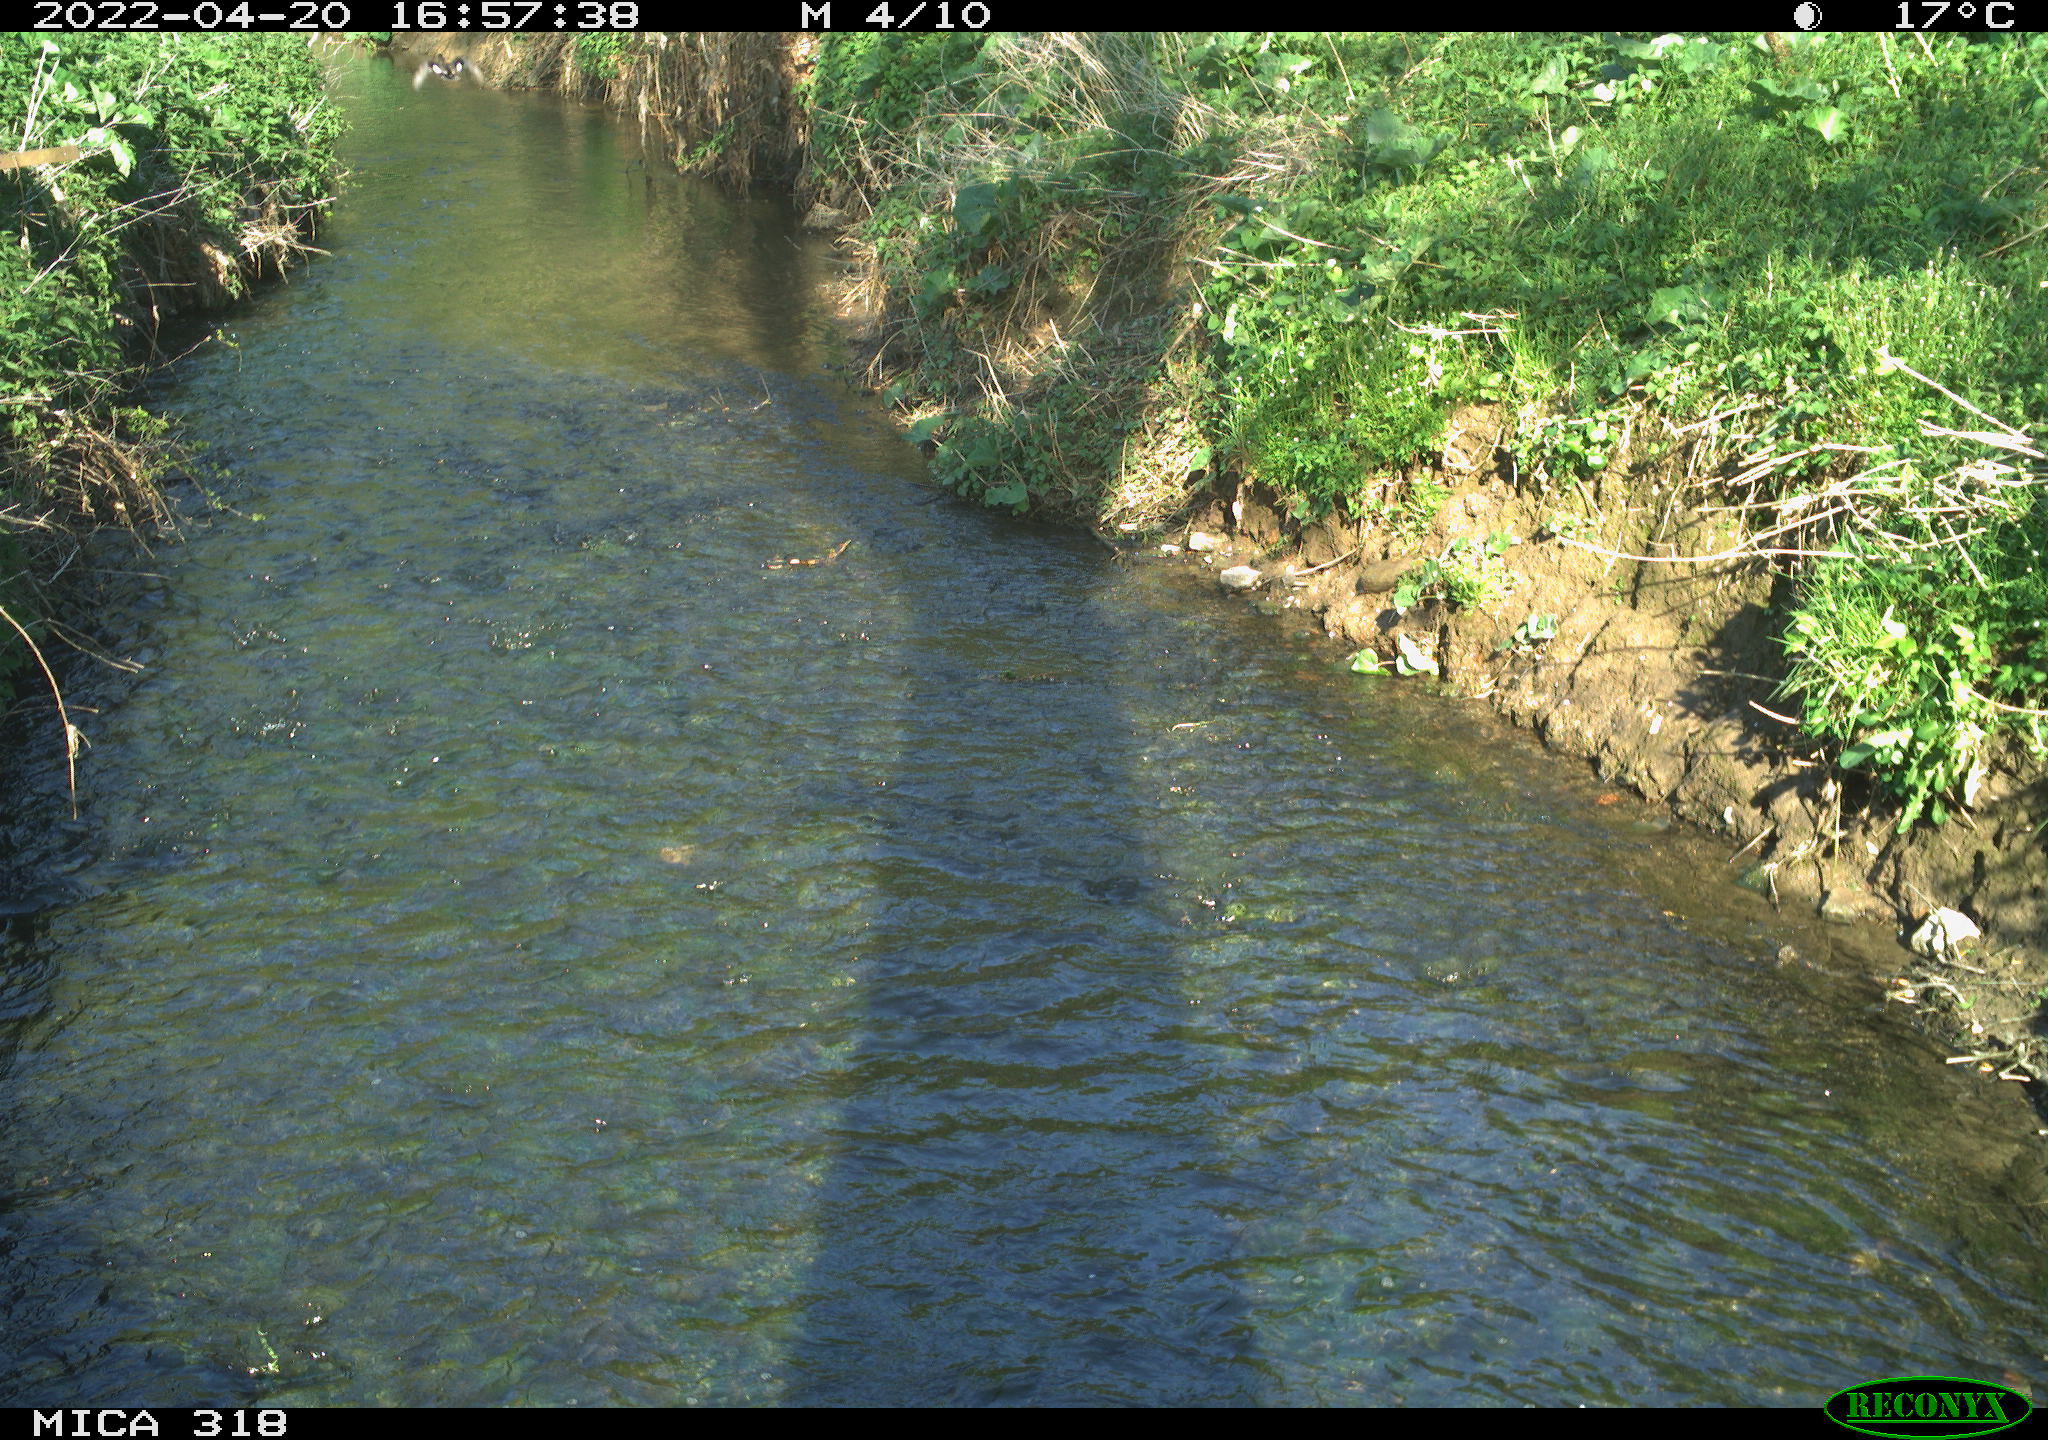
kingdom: Animalia
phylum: Chordata
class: Aves
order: Gruiformes
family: Rallidae
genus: Gallinula
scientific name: Gallinula chloropus
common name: Common moorhen
